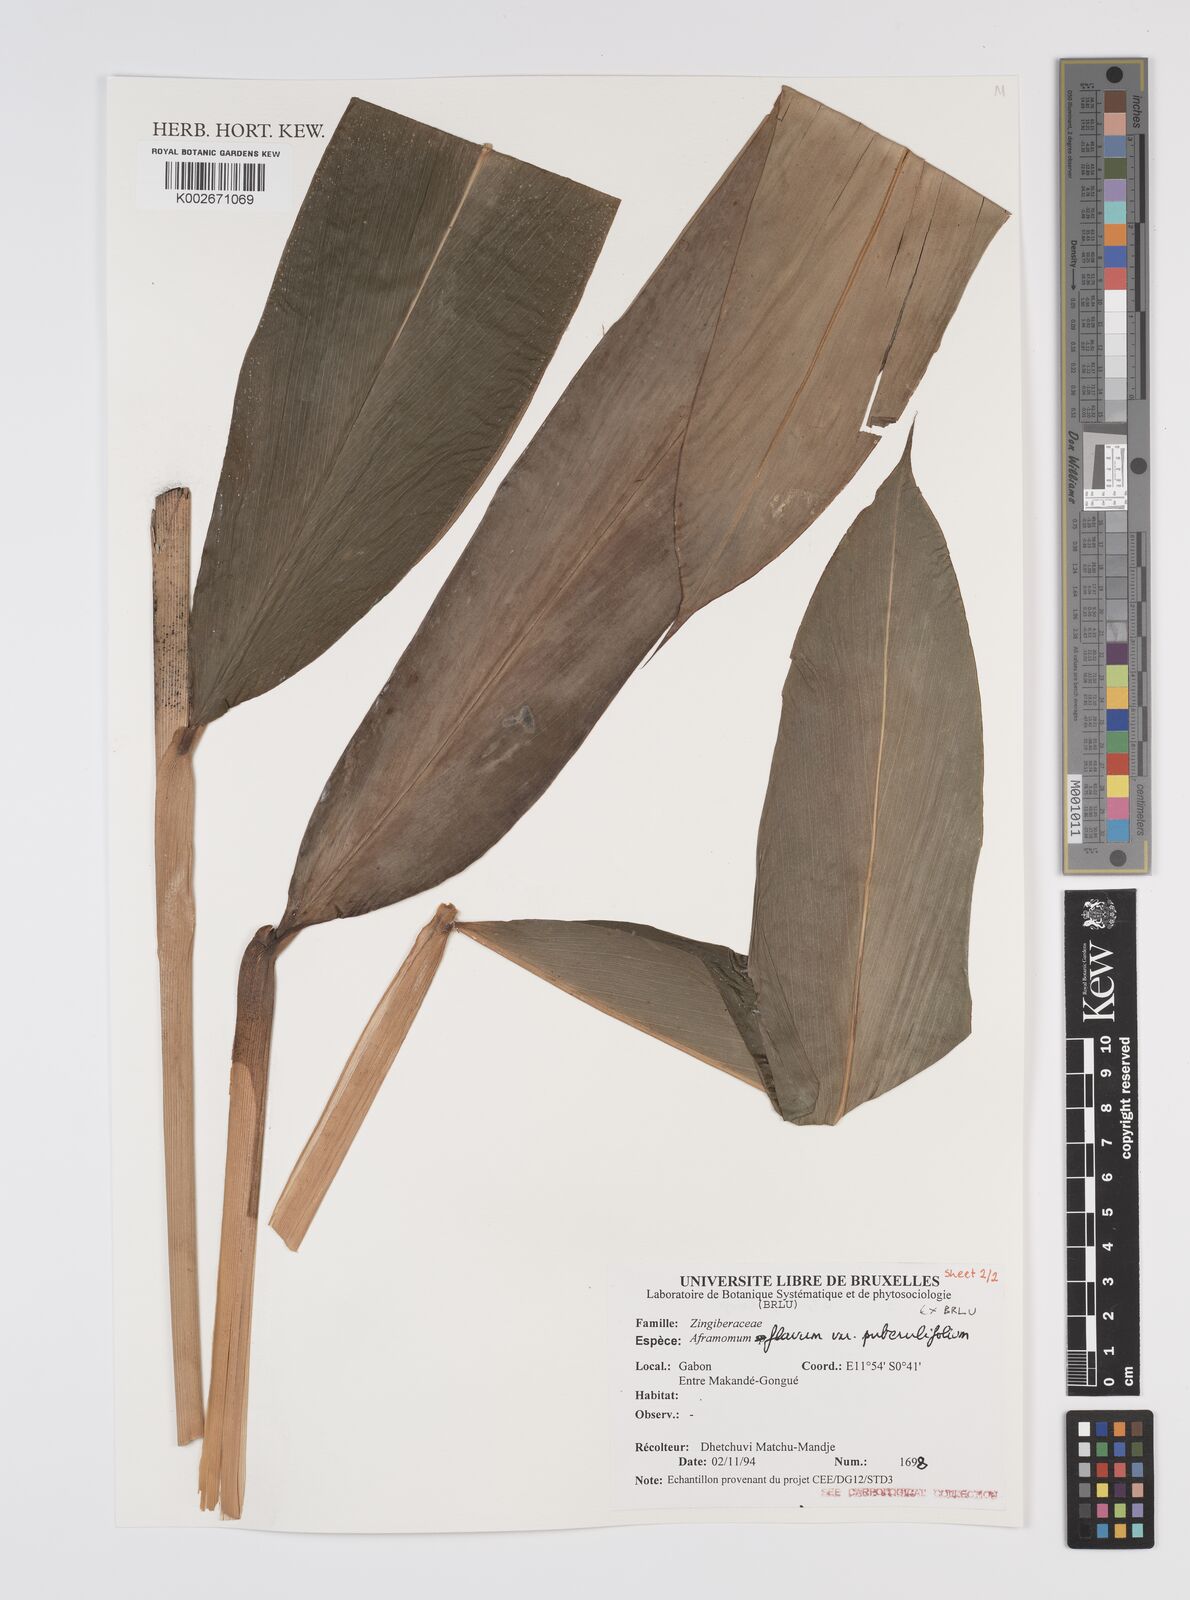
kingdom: Plantae
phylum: Tracheophyta
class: Liliopsida
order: Zingiberales
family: Zingiberaceae
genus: Aframomum
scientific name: Aframomum rotundum
